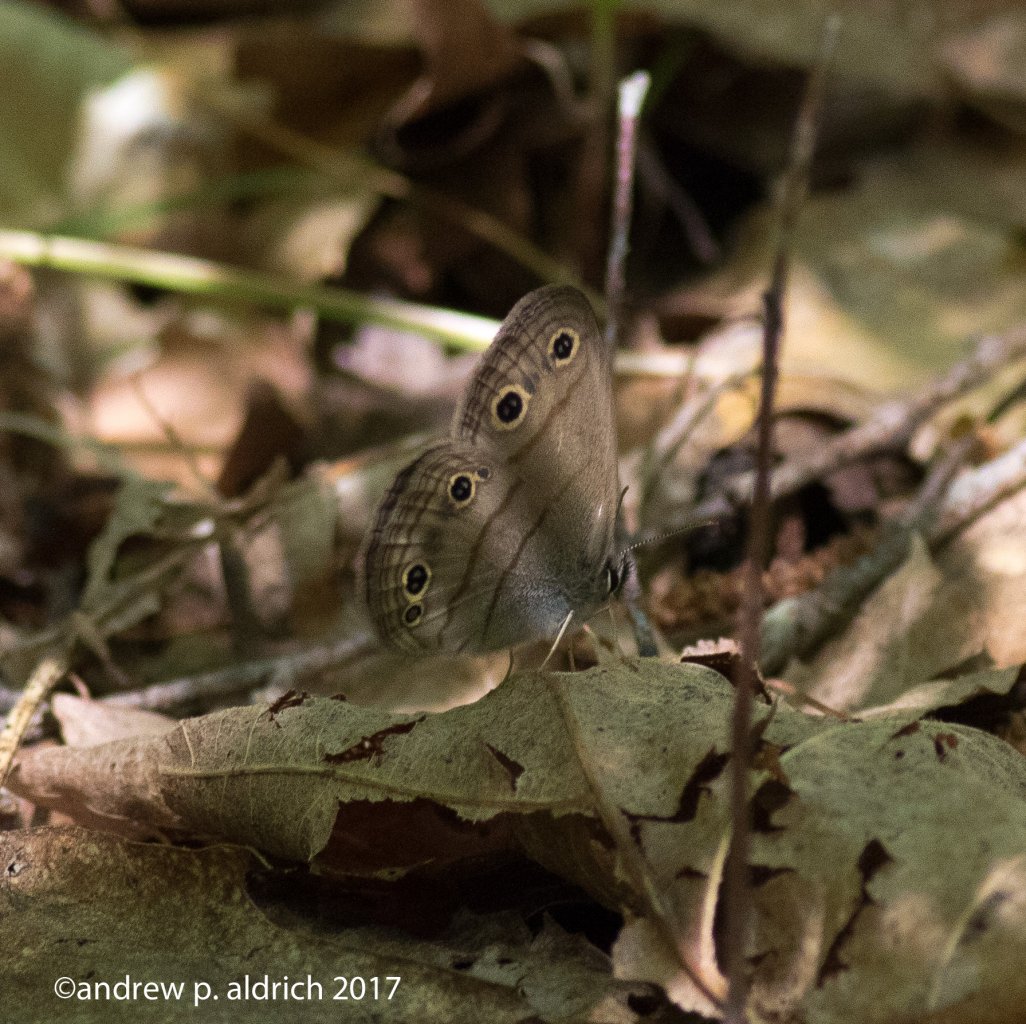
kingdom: Animalia
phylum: Arthropoda
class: Insecta
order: Lepidoptera
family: Nymphalidae
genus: Euptychia
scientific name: Euptychia cymela
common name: Little Wood Satyr
